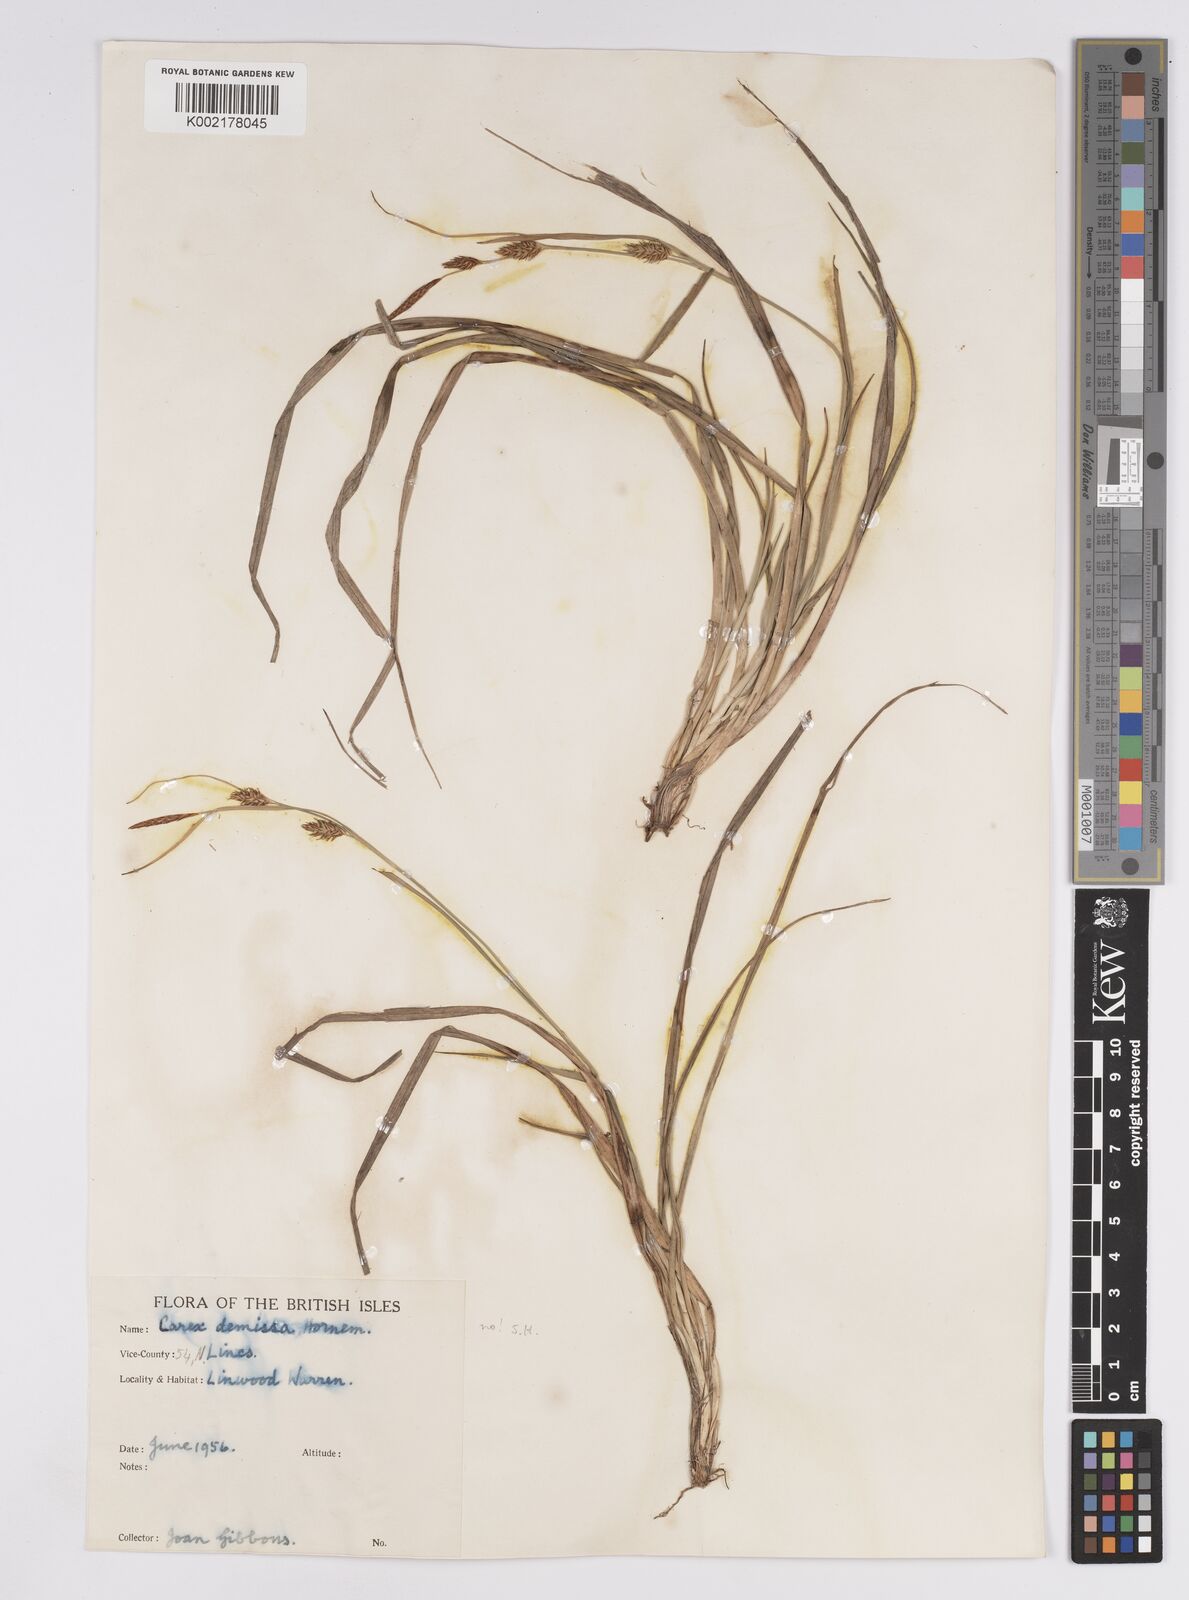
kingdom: Plantae
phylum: Tracheophyta
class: Liliopsida
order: Poales
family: Cyperaceae
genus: Carex
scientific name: Carex demissa
